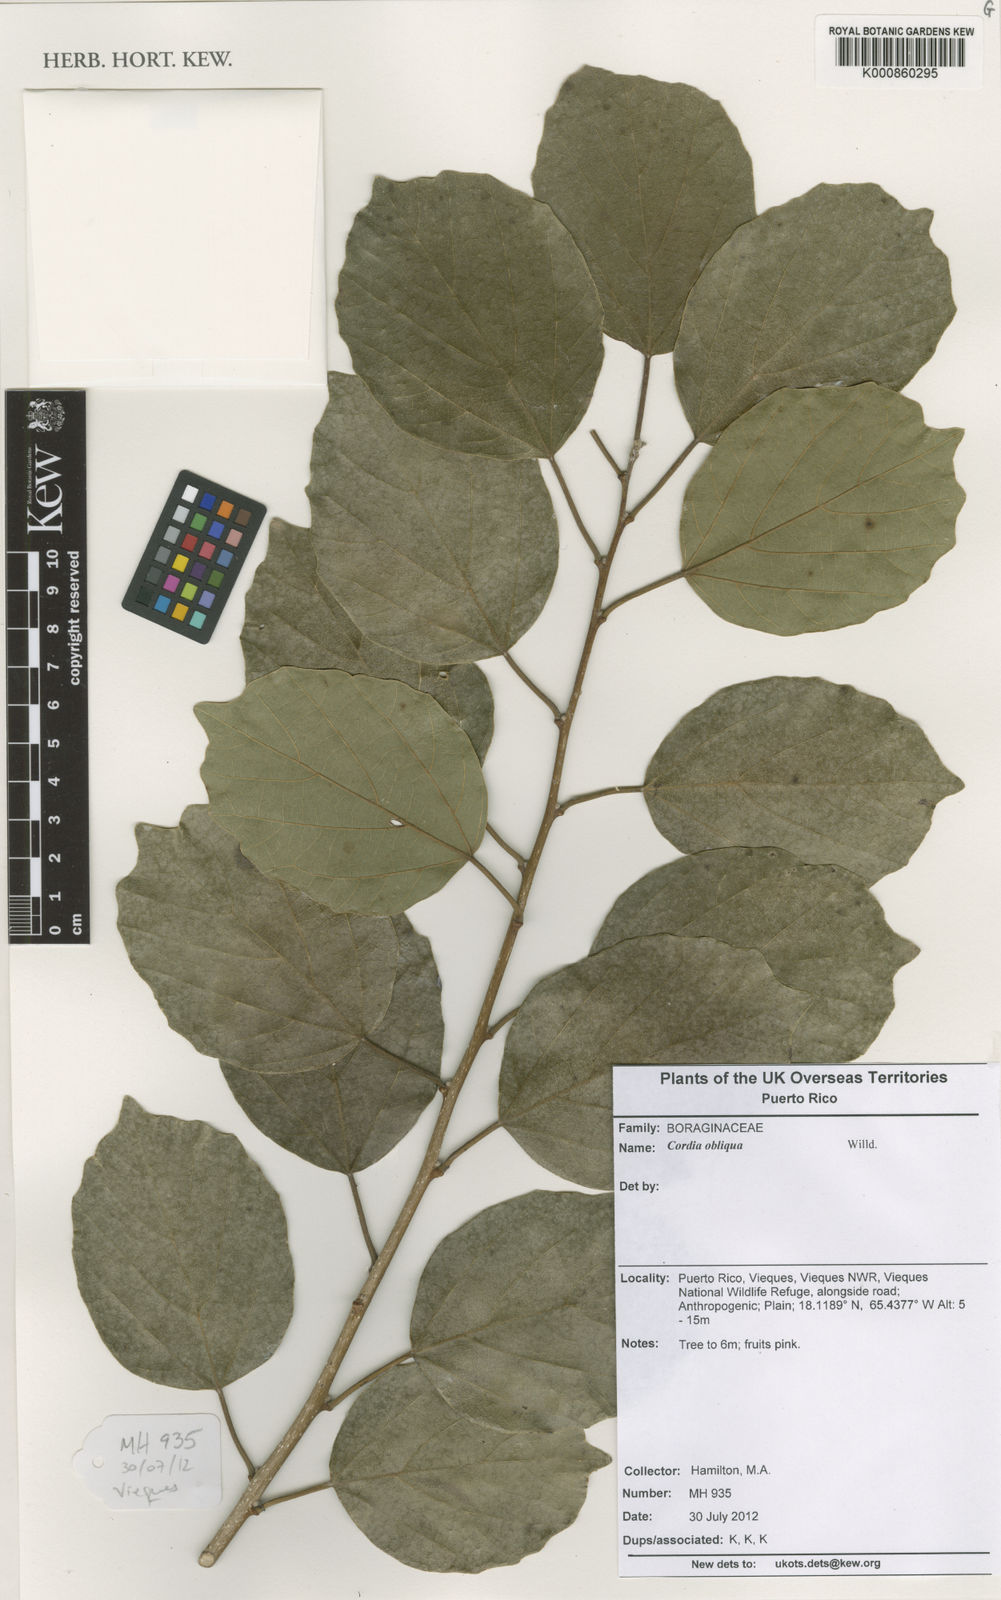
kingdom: Plantae
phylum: Tracheophyta
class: Magnoliopsida
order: Boraginales
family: Cordiaceae
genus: Cordia
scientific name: Cordia dichotoma
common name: Fragrant manjack
